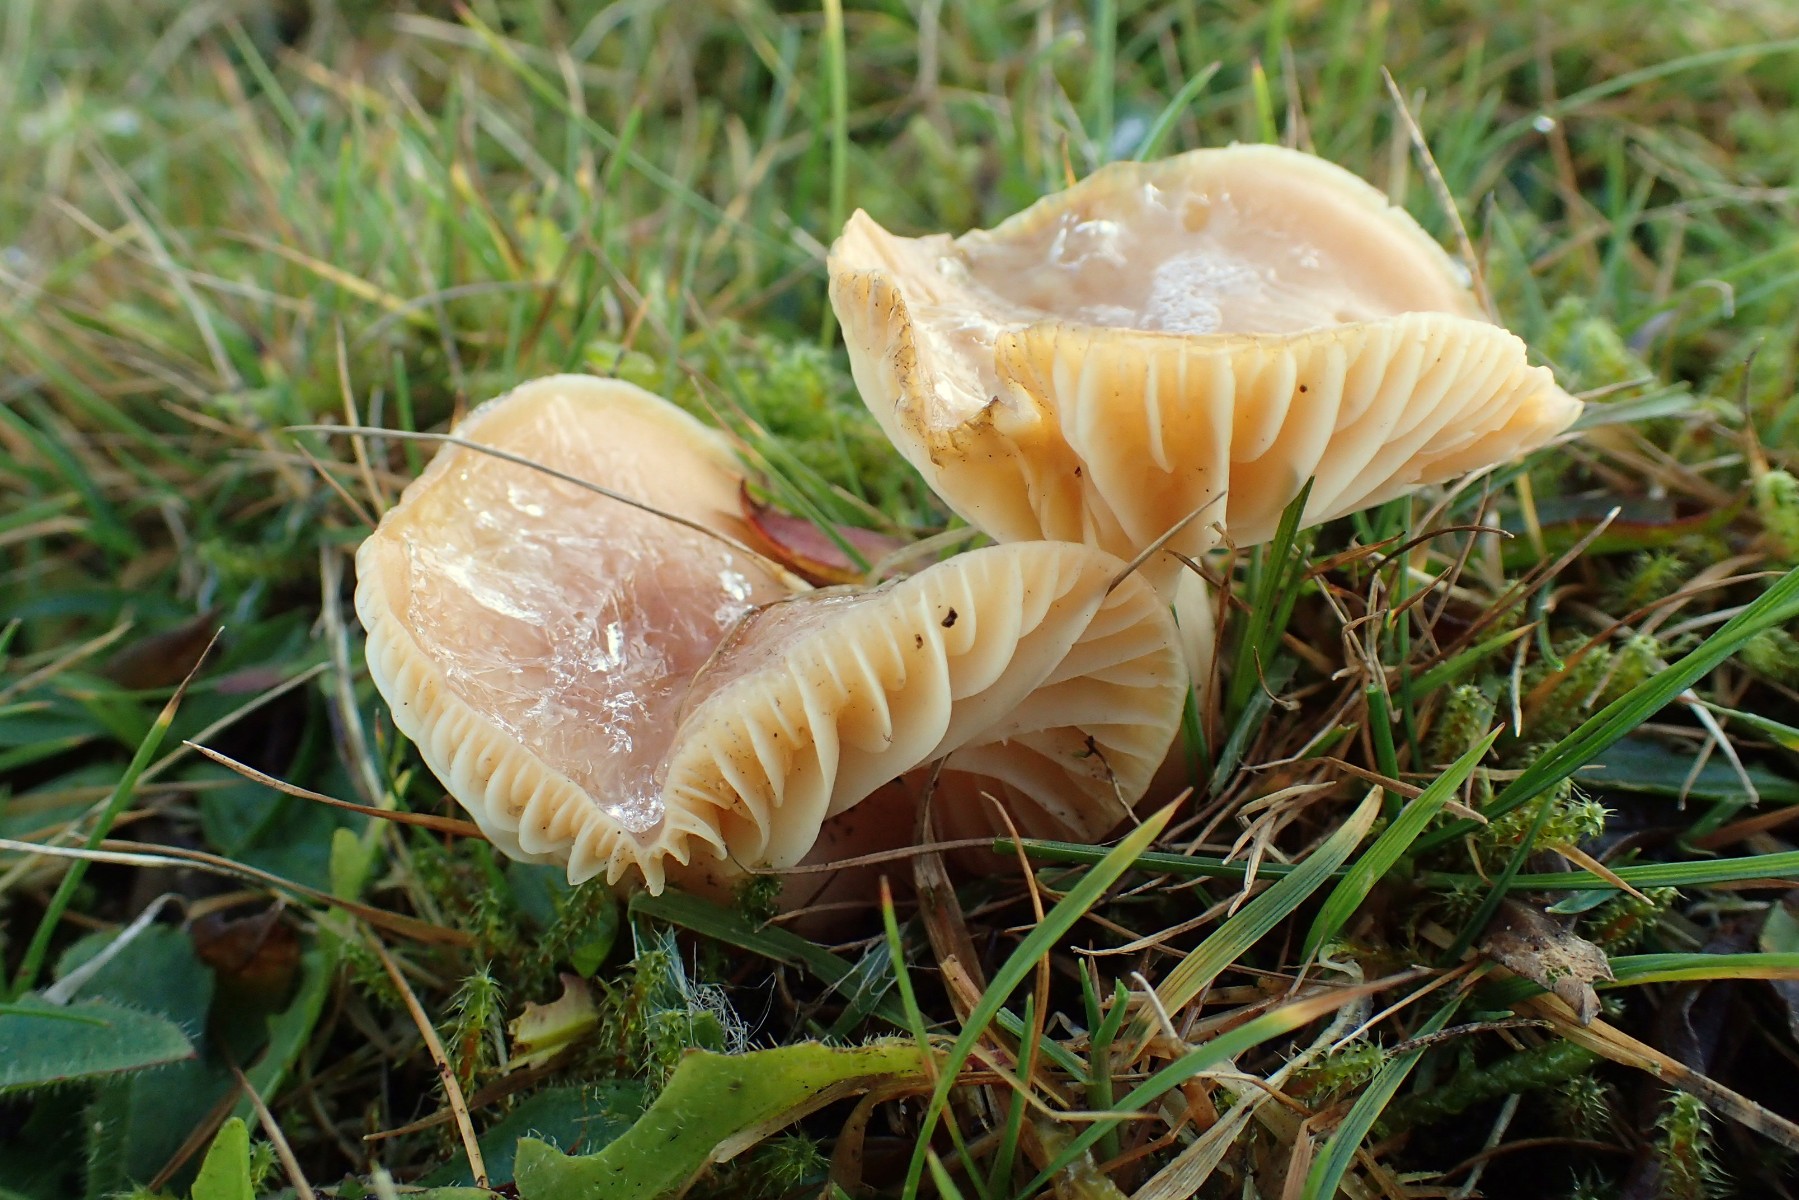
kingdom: Fungi
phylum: Basidiomycota
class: Agaricomycetes
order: Agaricales
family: Hygrophoraceae
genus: Cuphophyllus
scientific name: Cuphophyllus pratensis
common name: eng-vokshat
